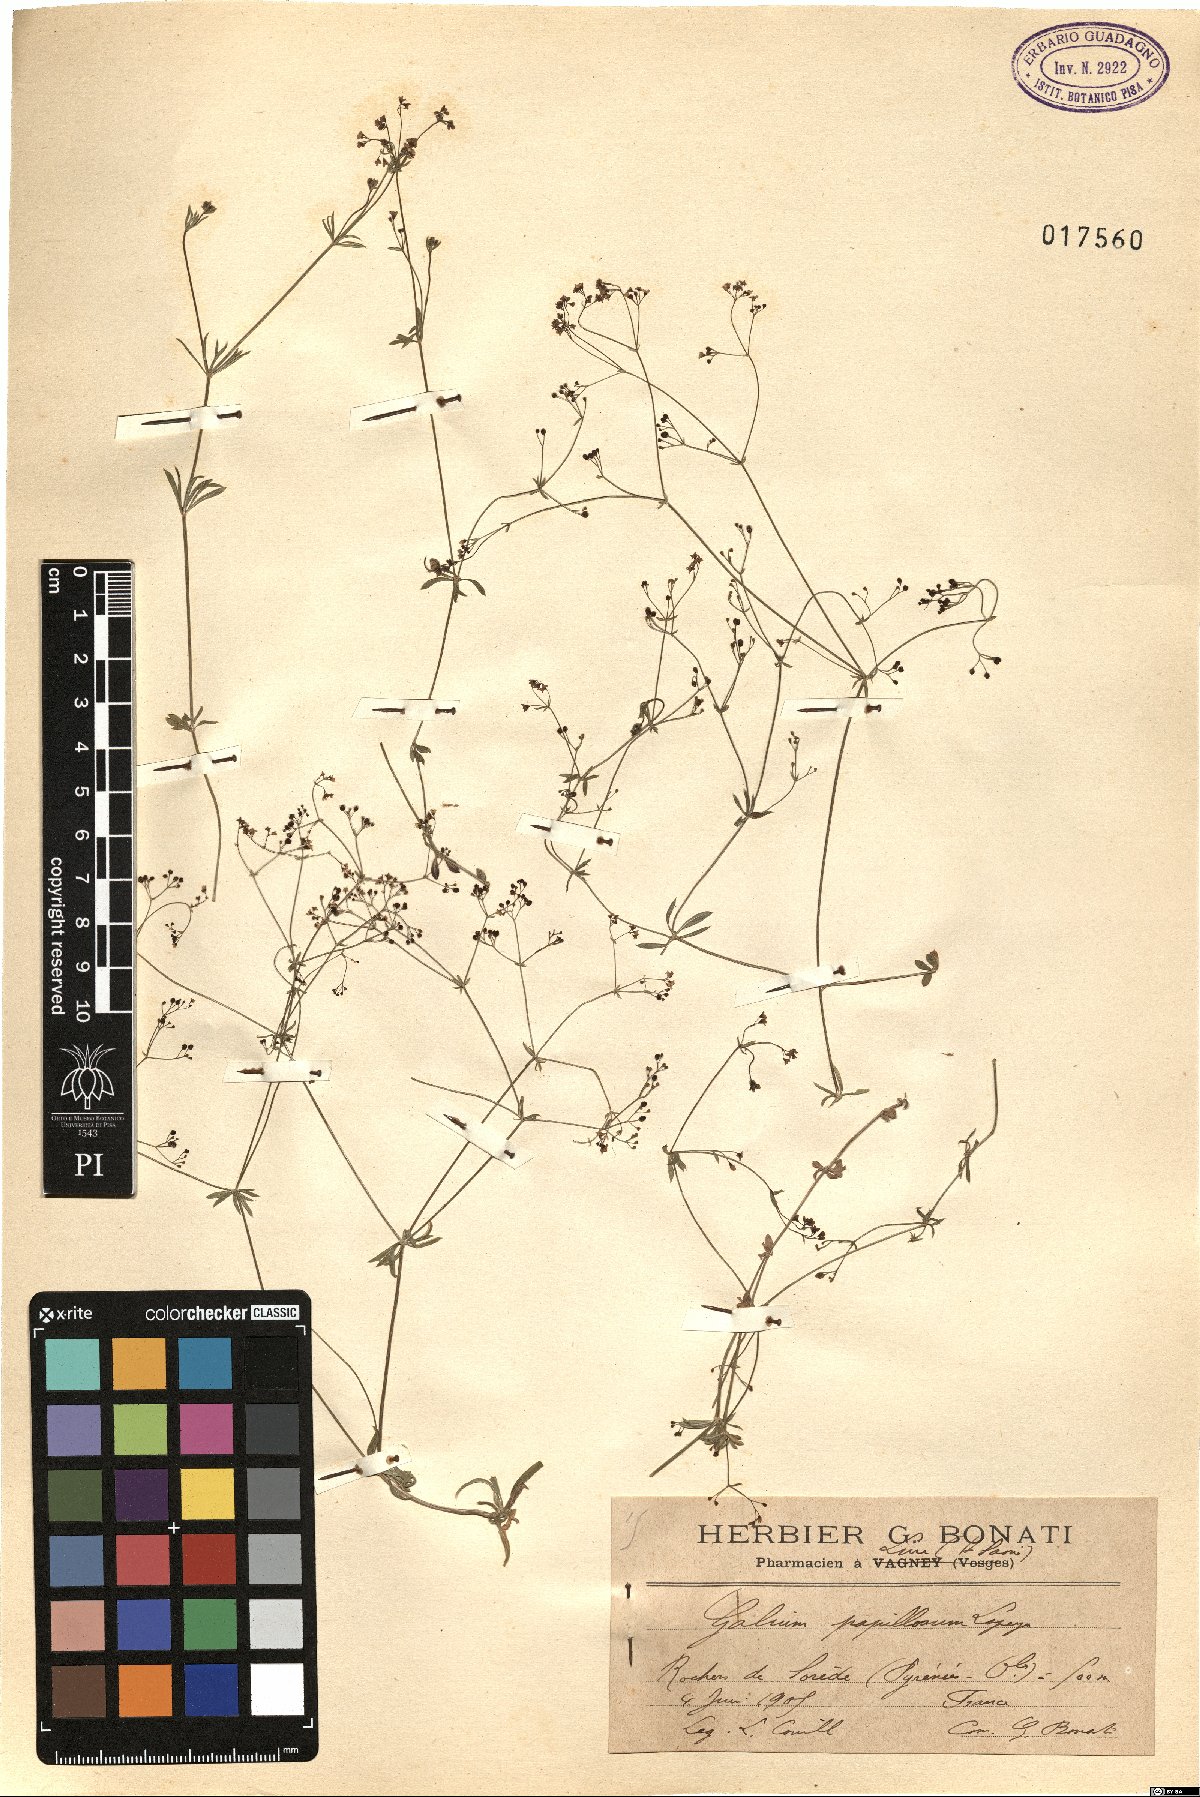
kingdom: Plantae
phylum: Tracheophyta
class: Magnoliopsida
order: Gentianales
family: Rubiaceae
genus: Galium
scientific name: Galium papillosum
